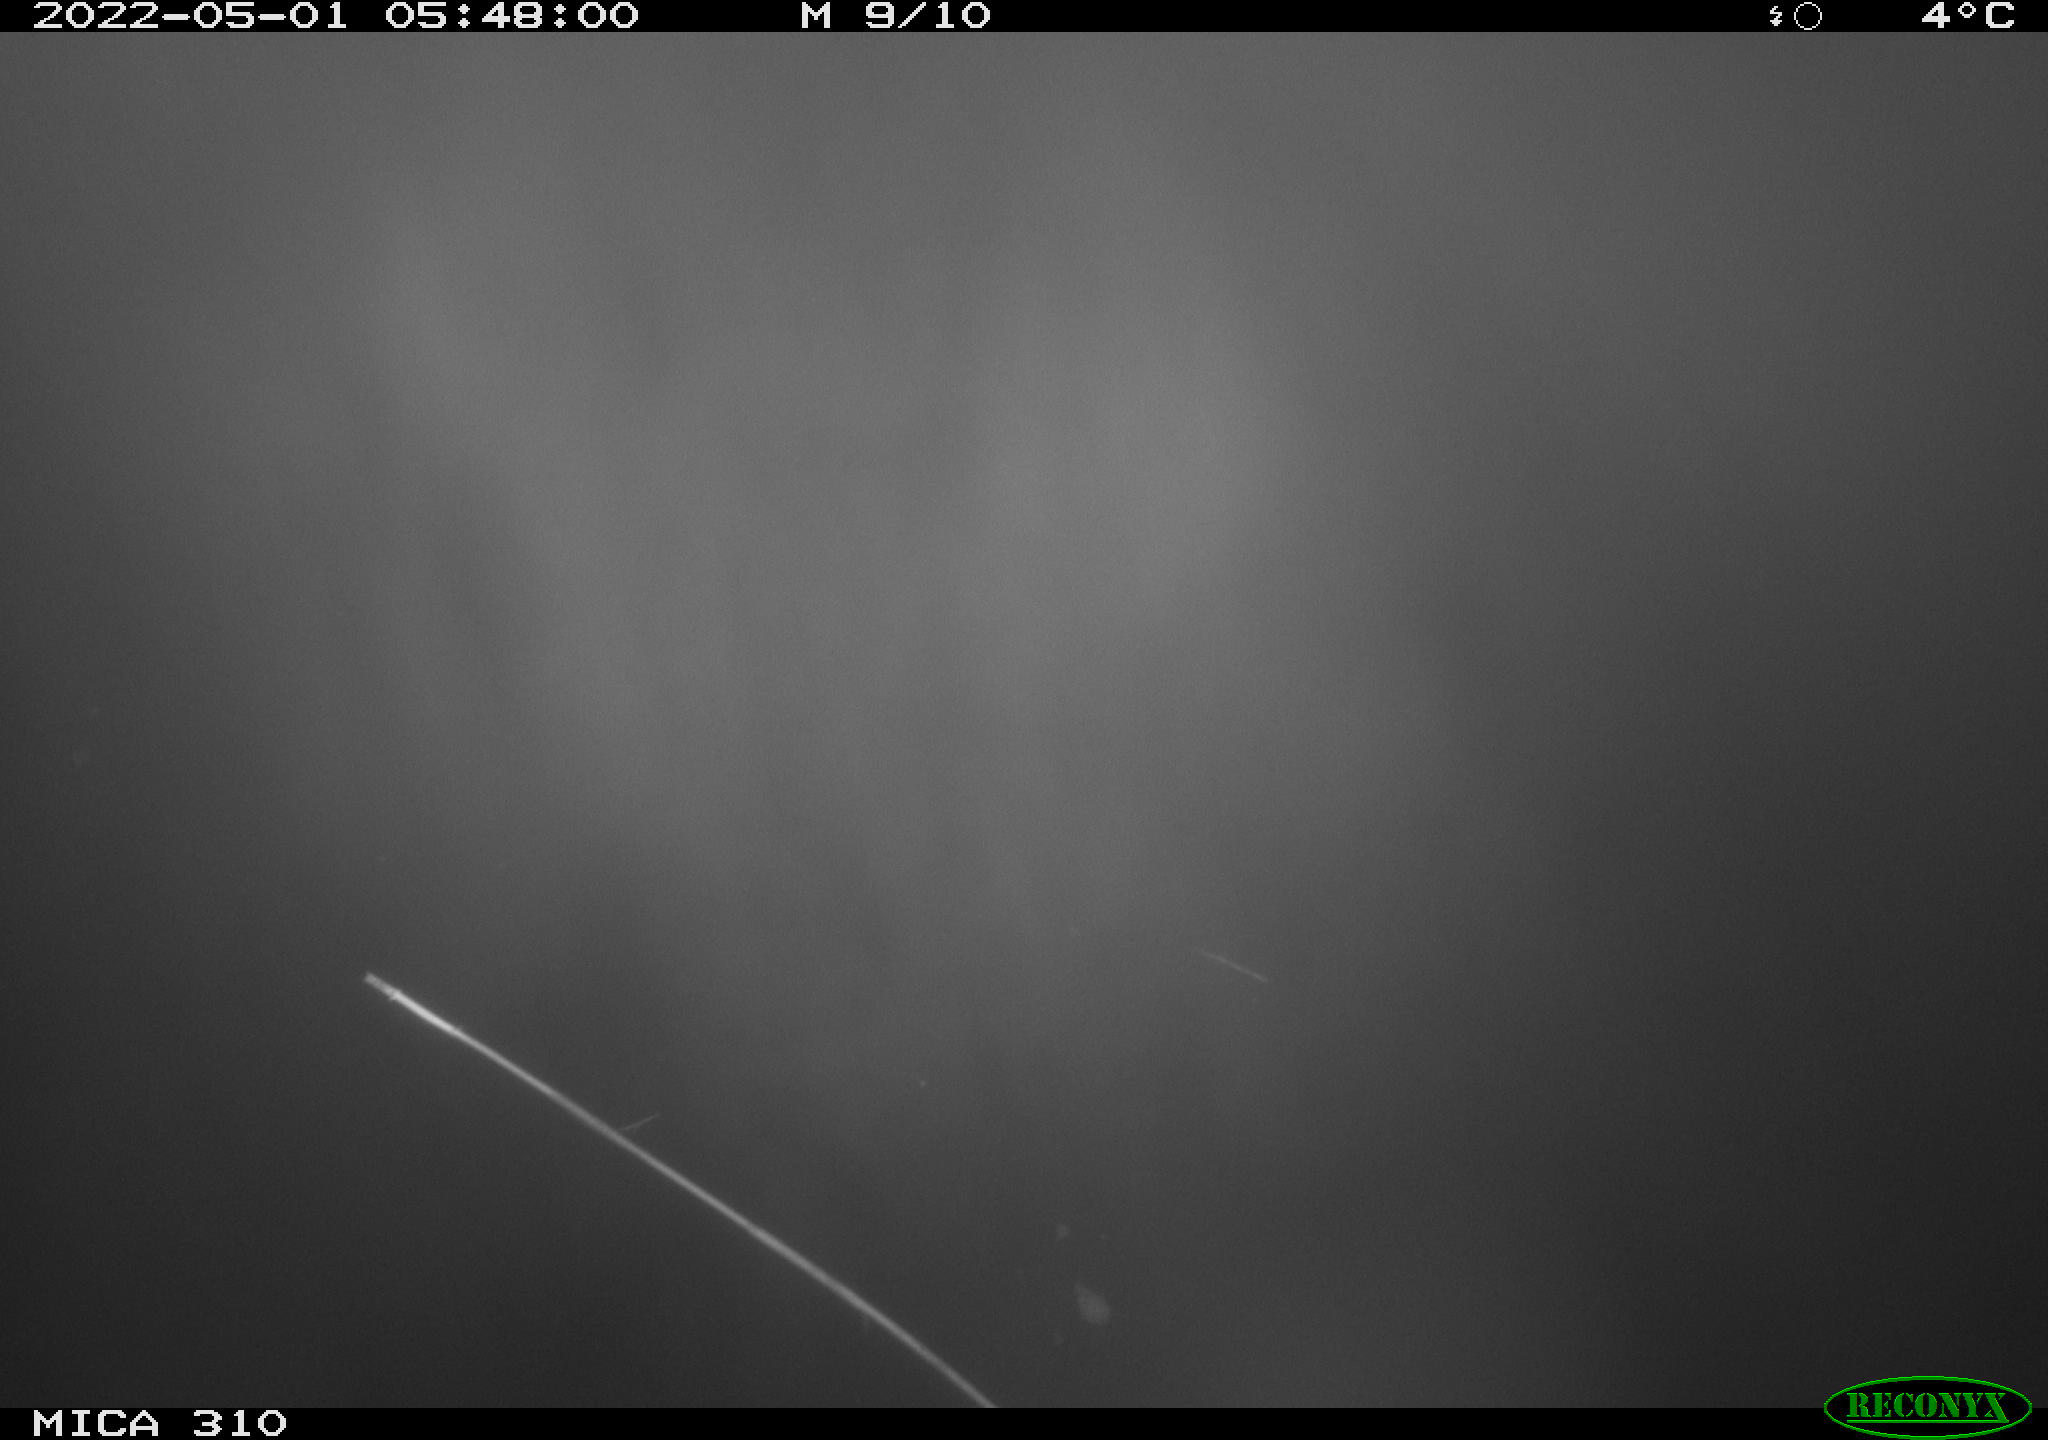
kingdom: Animalia
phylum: Chordata
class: Aves
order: Anseriformes
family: Anatidae
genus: Anas
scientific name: Anas platyrhynchos
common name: Mallard
